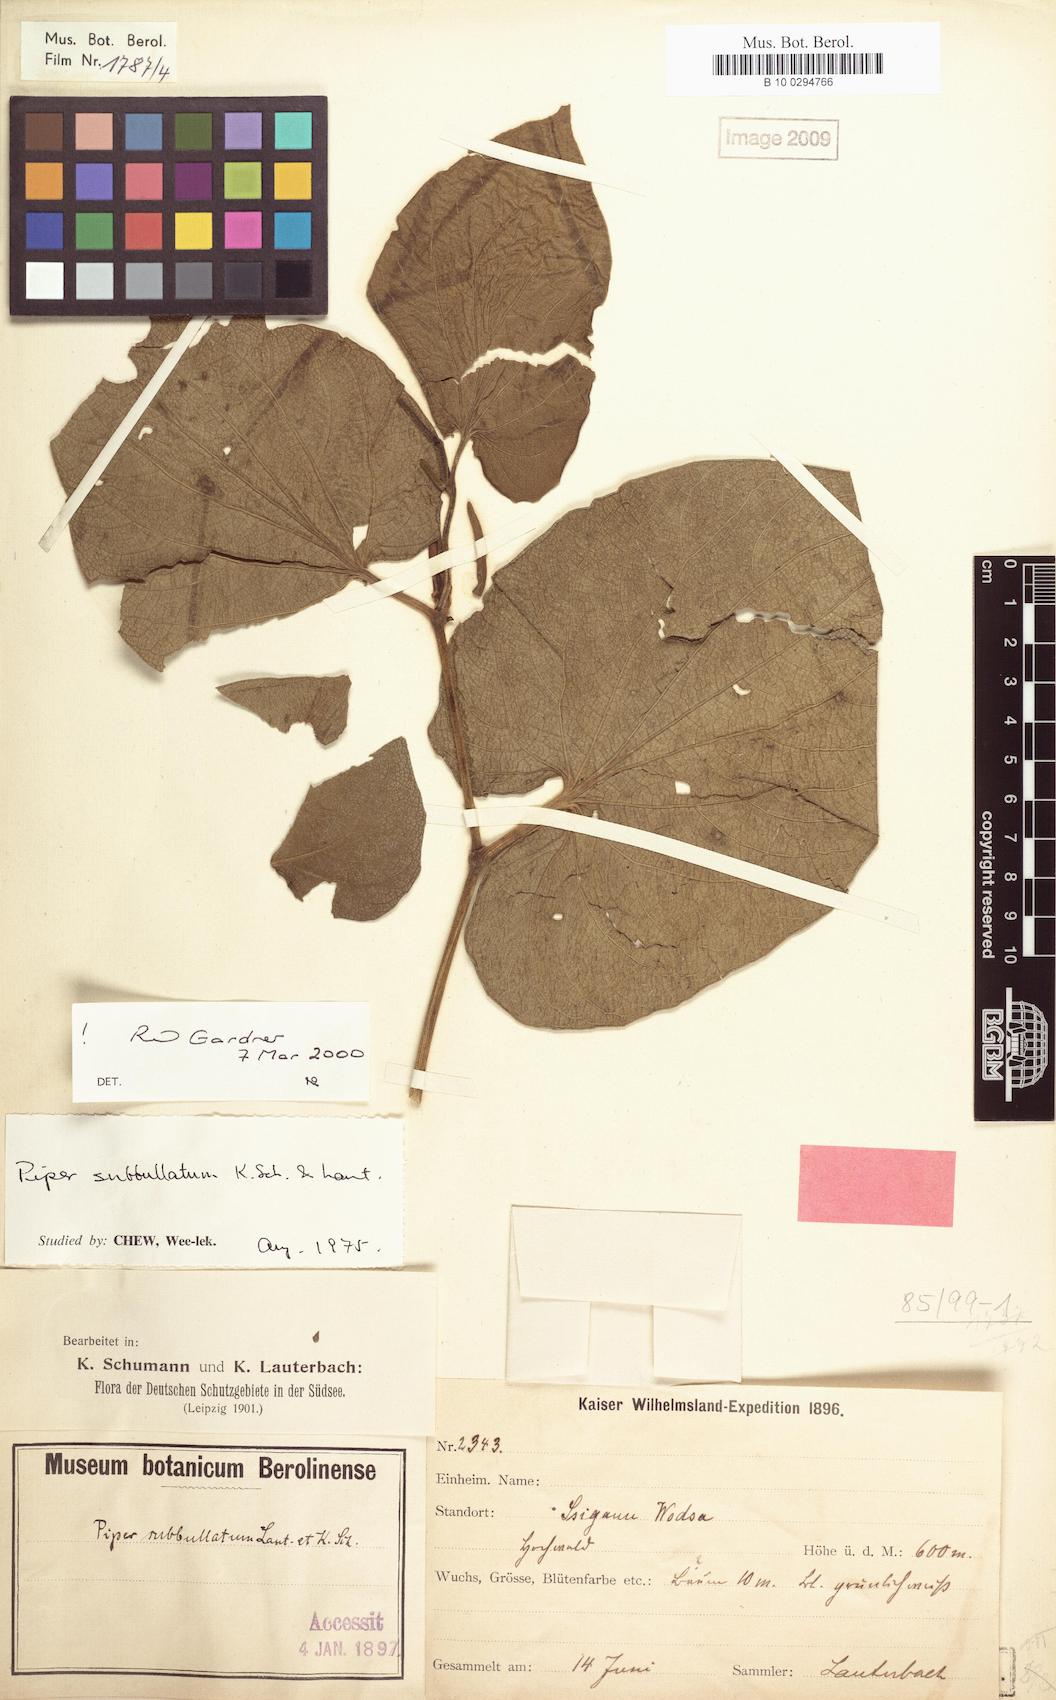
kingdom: Plantae
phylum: Tracheophyta
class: Magnoliopsida
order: Piperales
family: Piperaceae
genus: Piper
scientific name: Piper subbullatum
